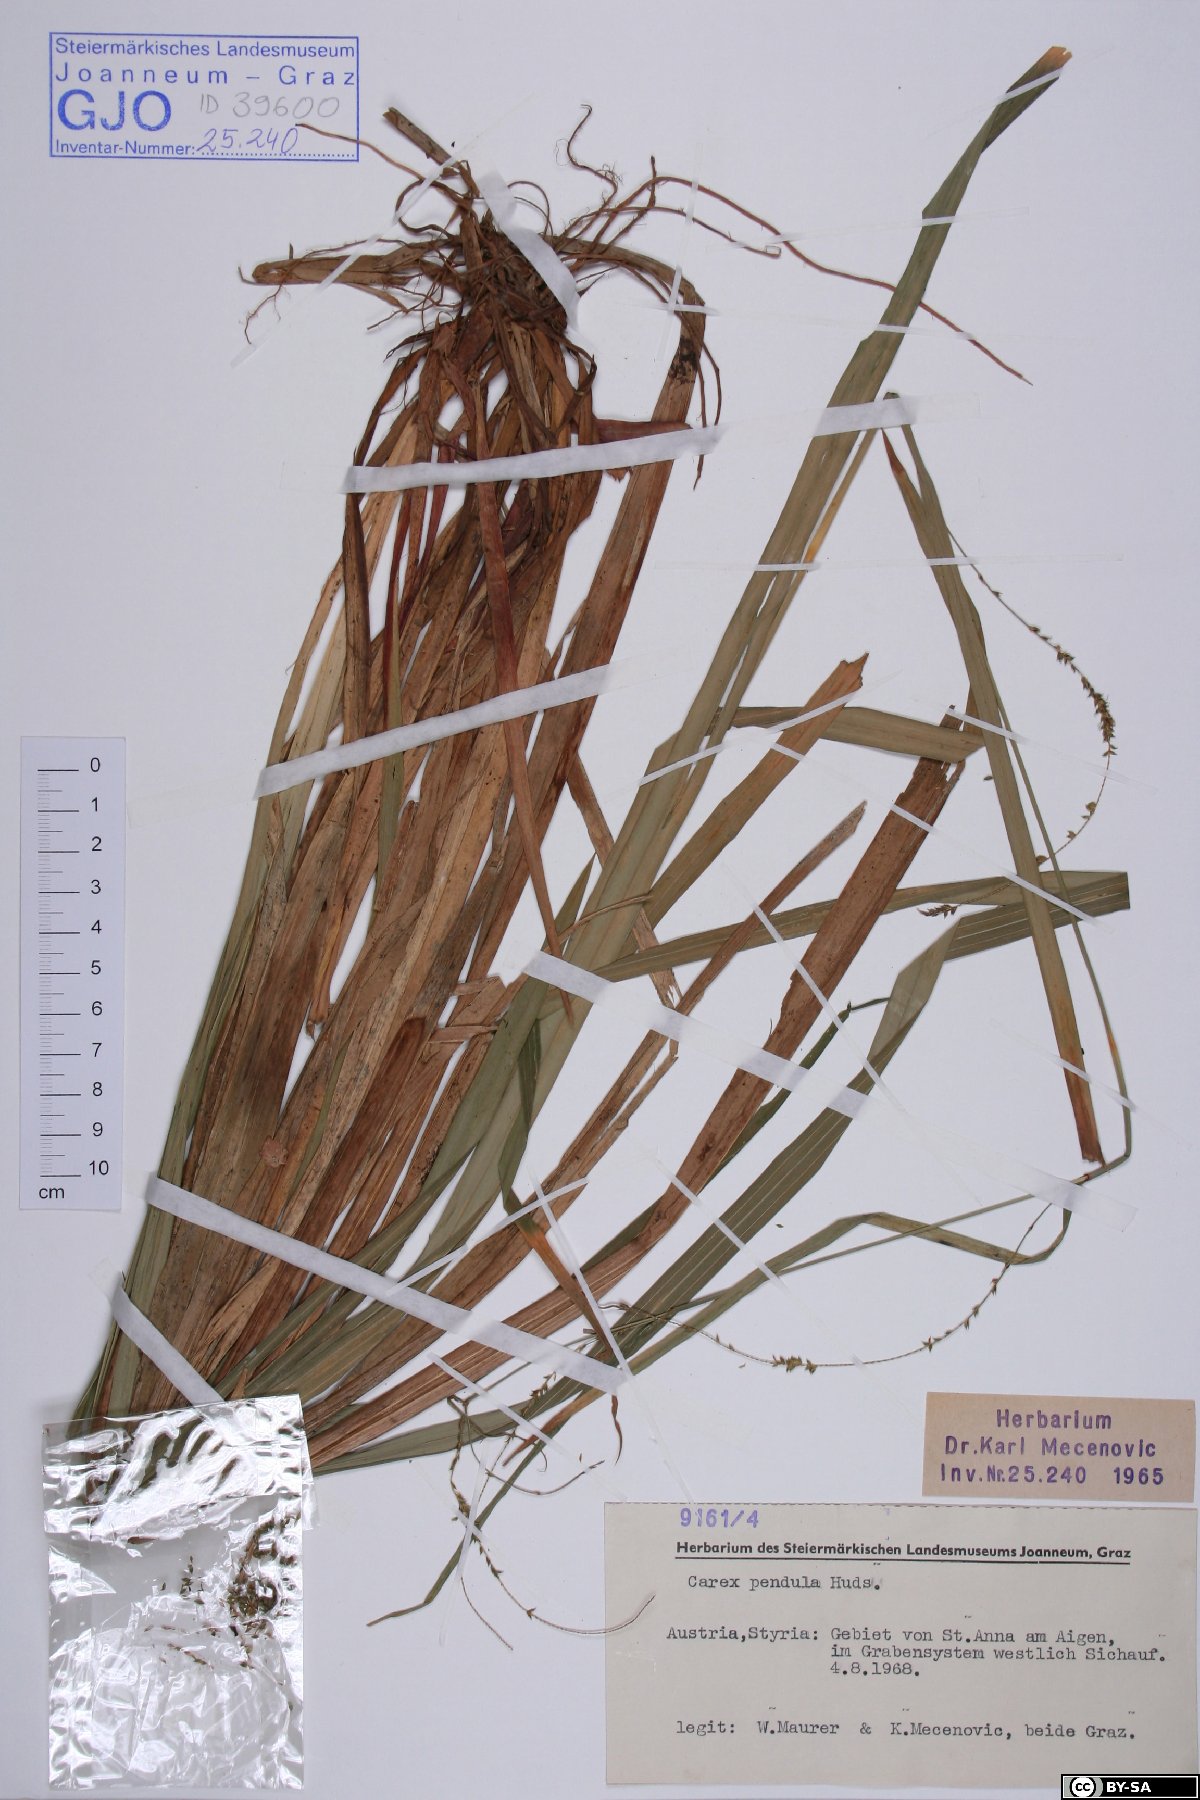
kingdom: Plantae
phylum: Tracheophyta
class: Liliopsida
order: Poales
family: Cyperaceae
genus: Carex
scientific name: Carex pendula
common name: Pendulous sedge
